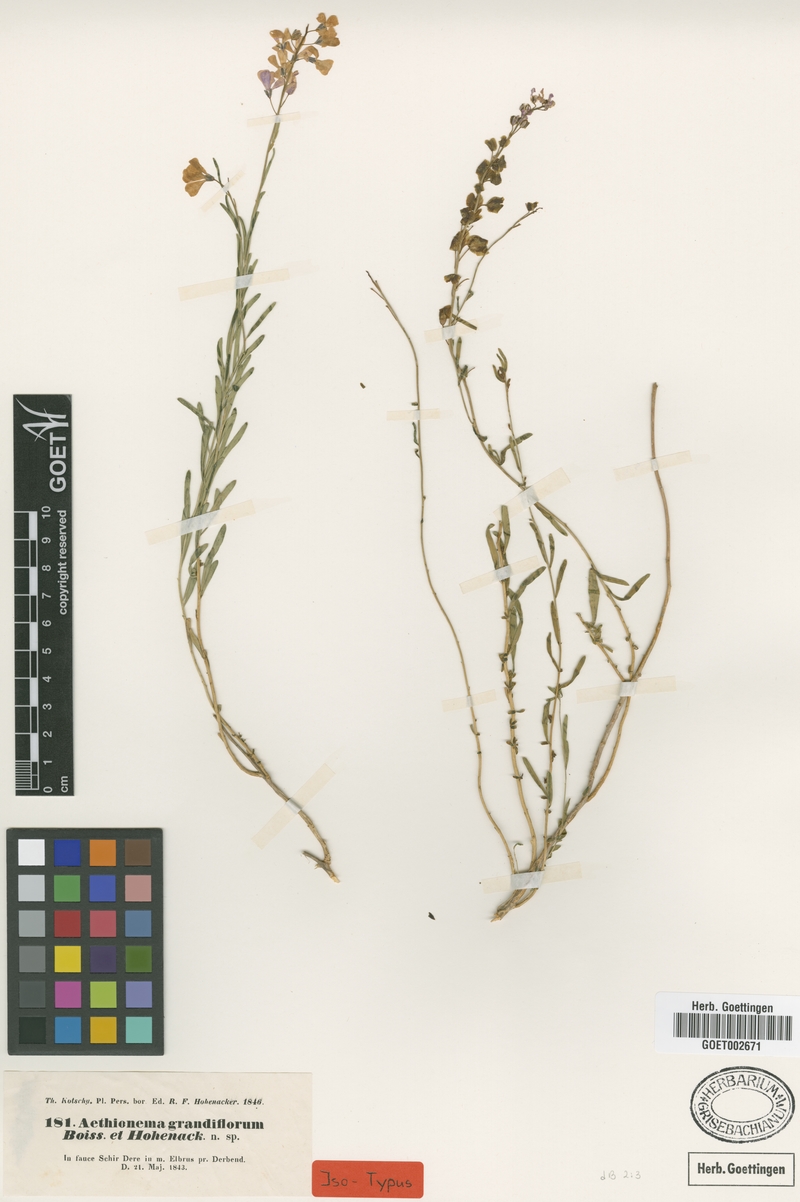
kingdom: Plantae
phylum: Tracheophyta
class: Magnoliopsida
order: Brassicales
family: Brassicaceae
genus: Aethionema
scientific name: Aethionema grandiflorum
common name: Persian stonecress
